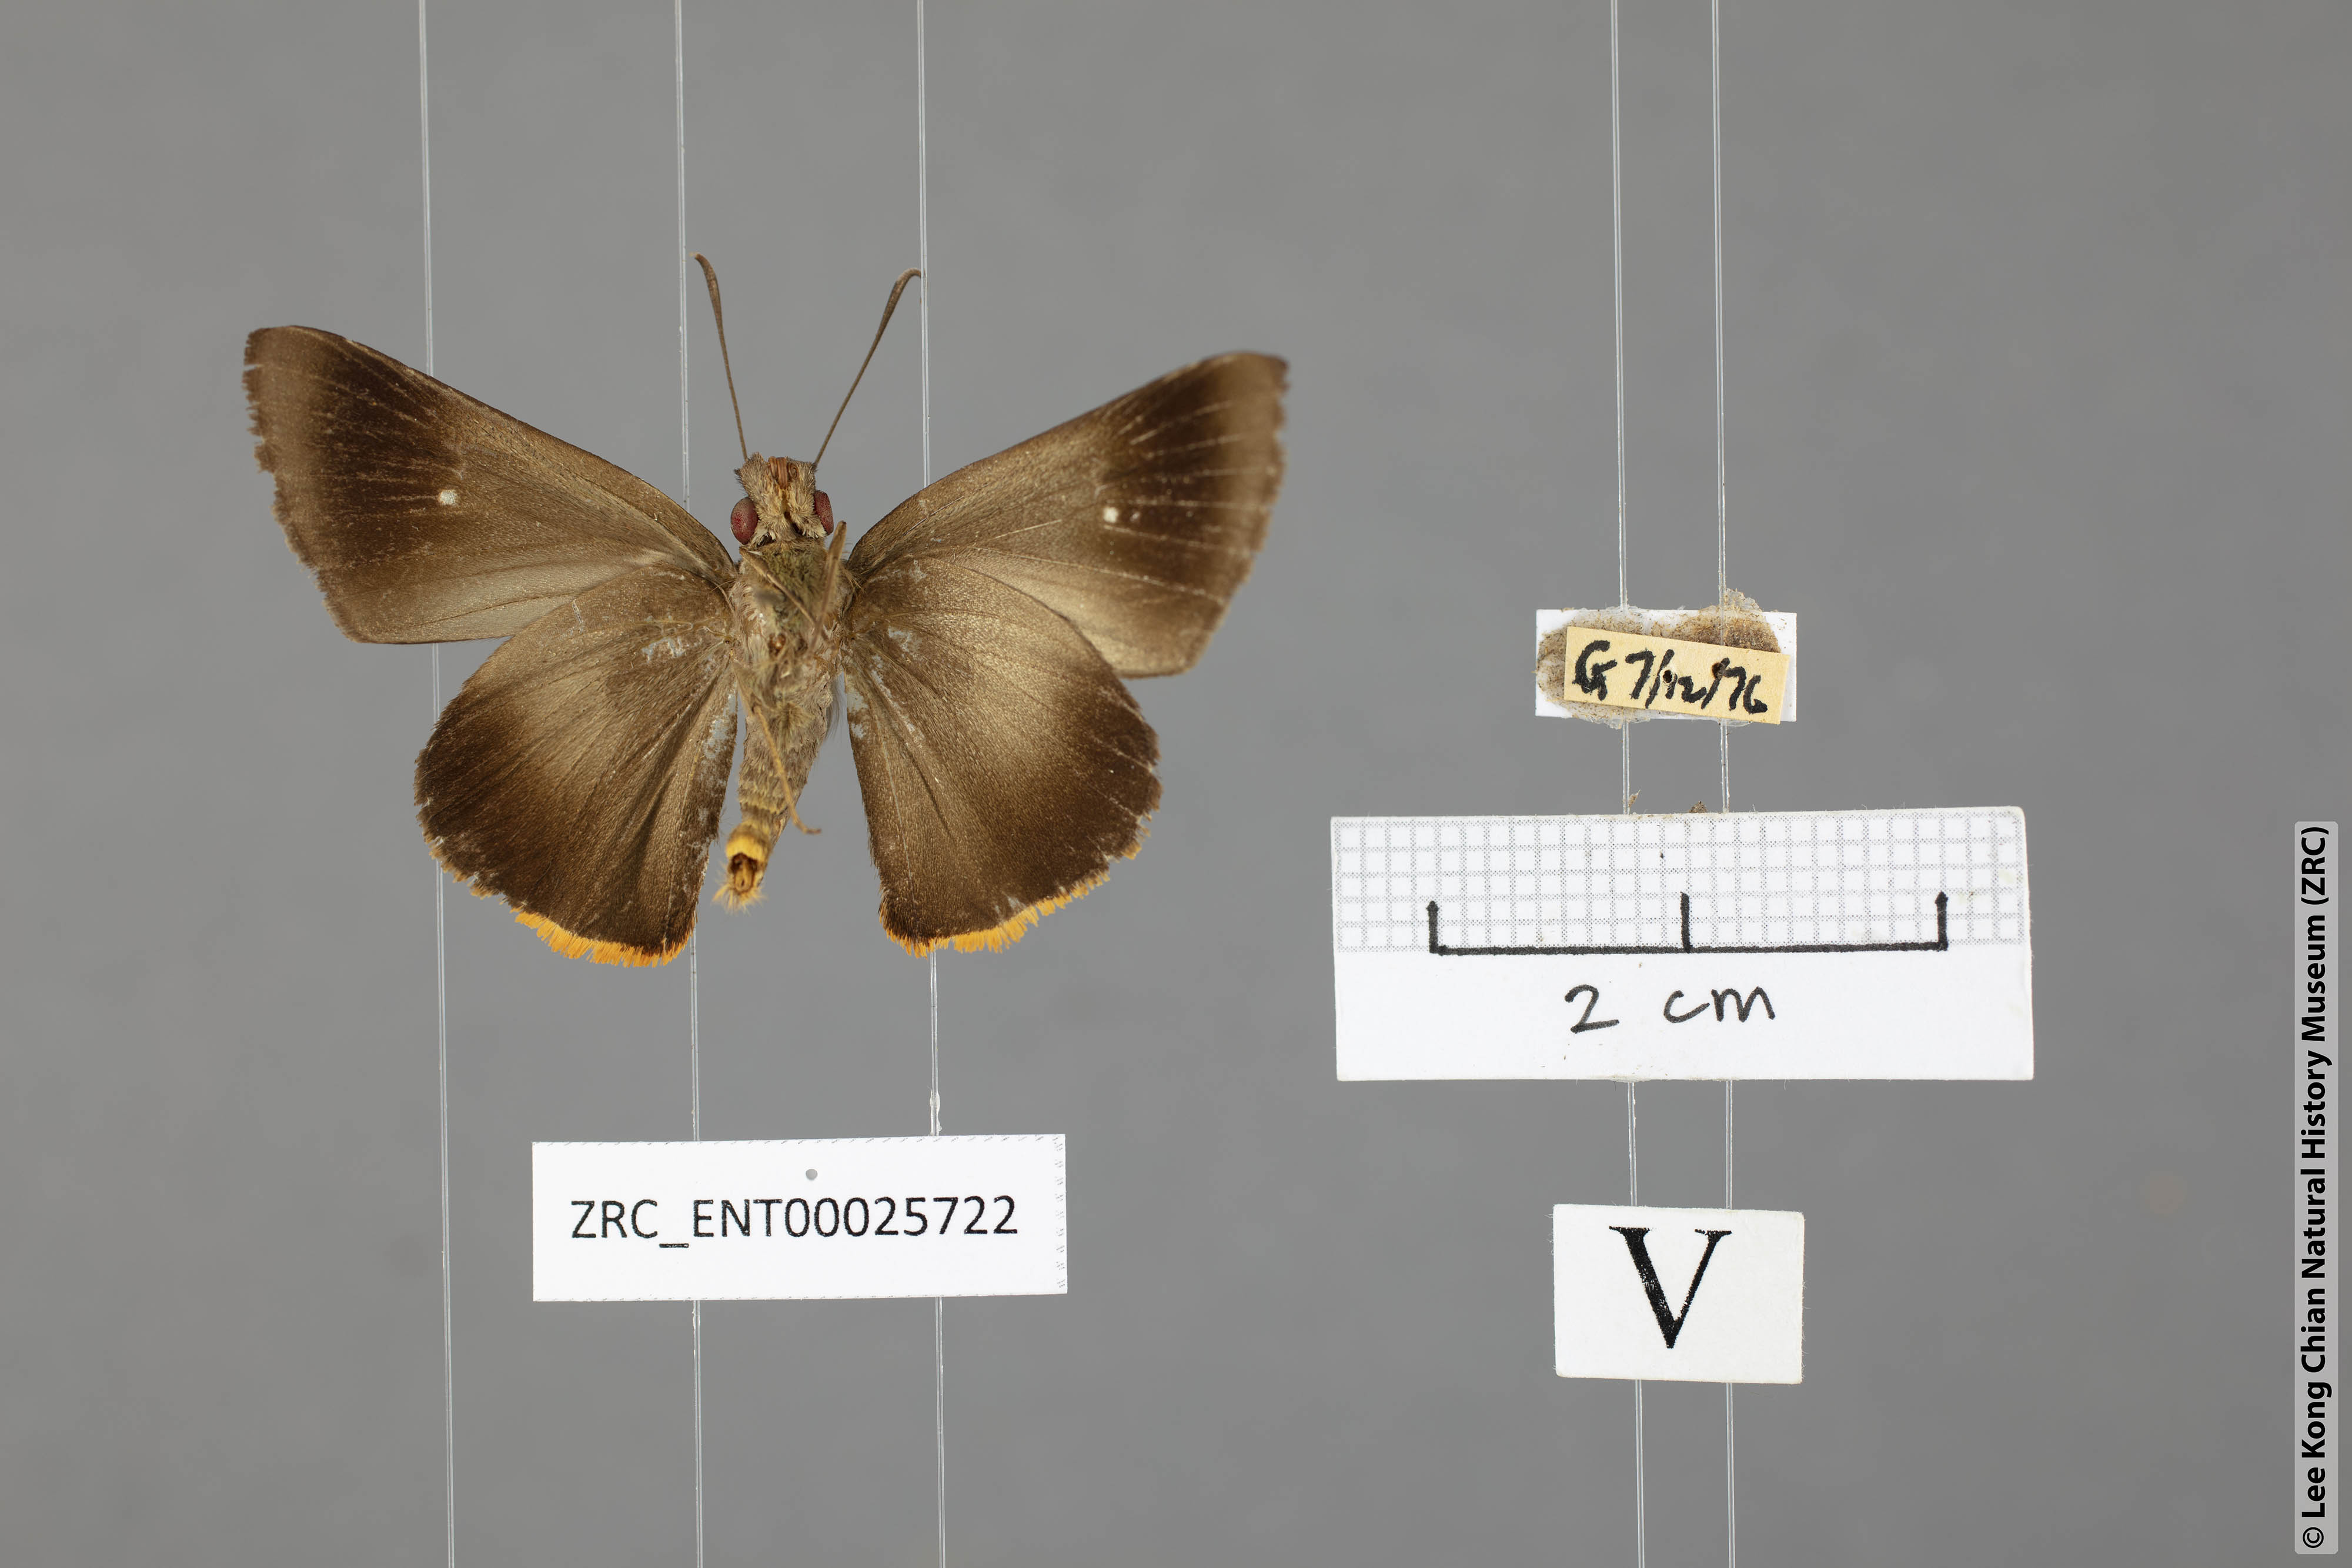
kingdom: Animalia
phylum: Arthropoda
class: Insecta
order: Lepidoptera
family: Hesperiidae
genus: Zela
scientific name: Zela zenon
